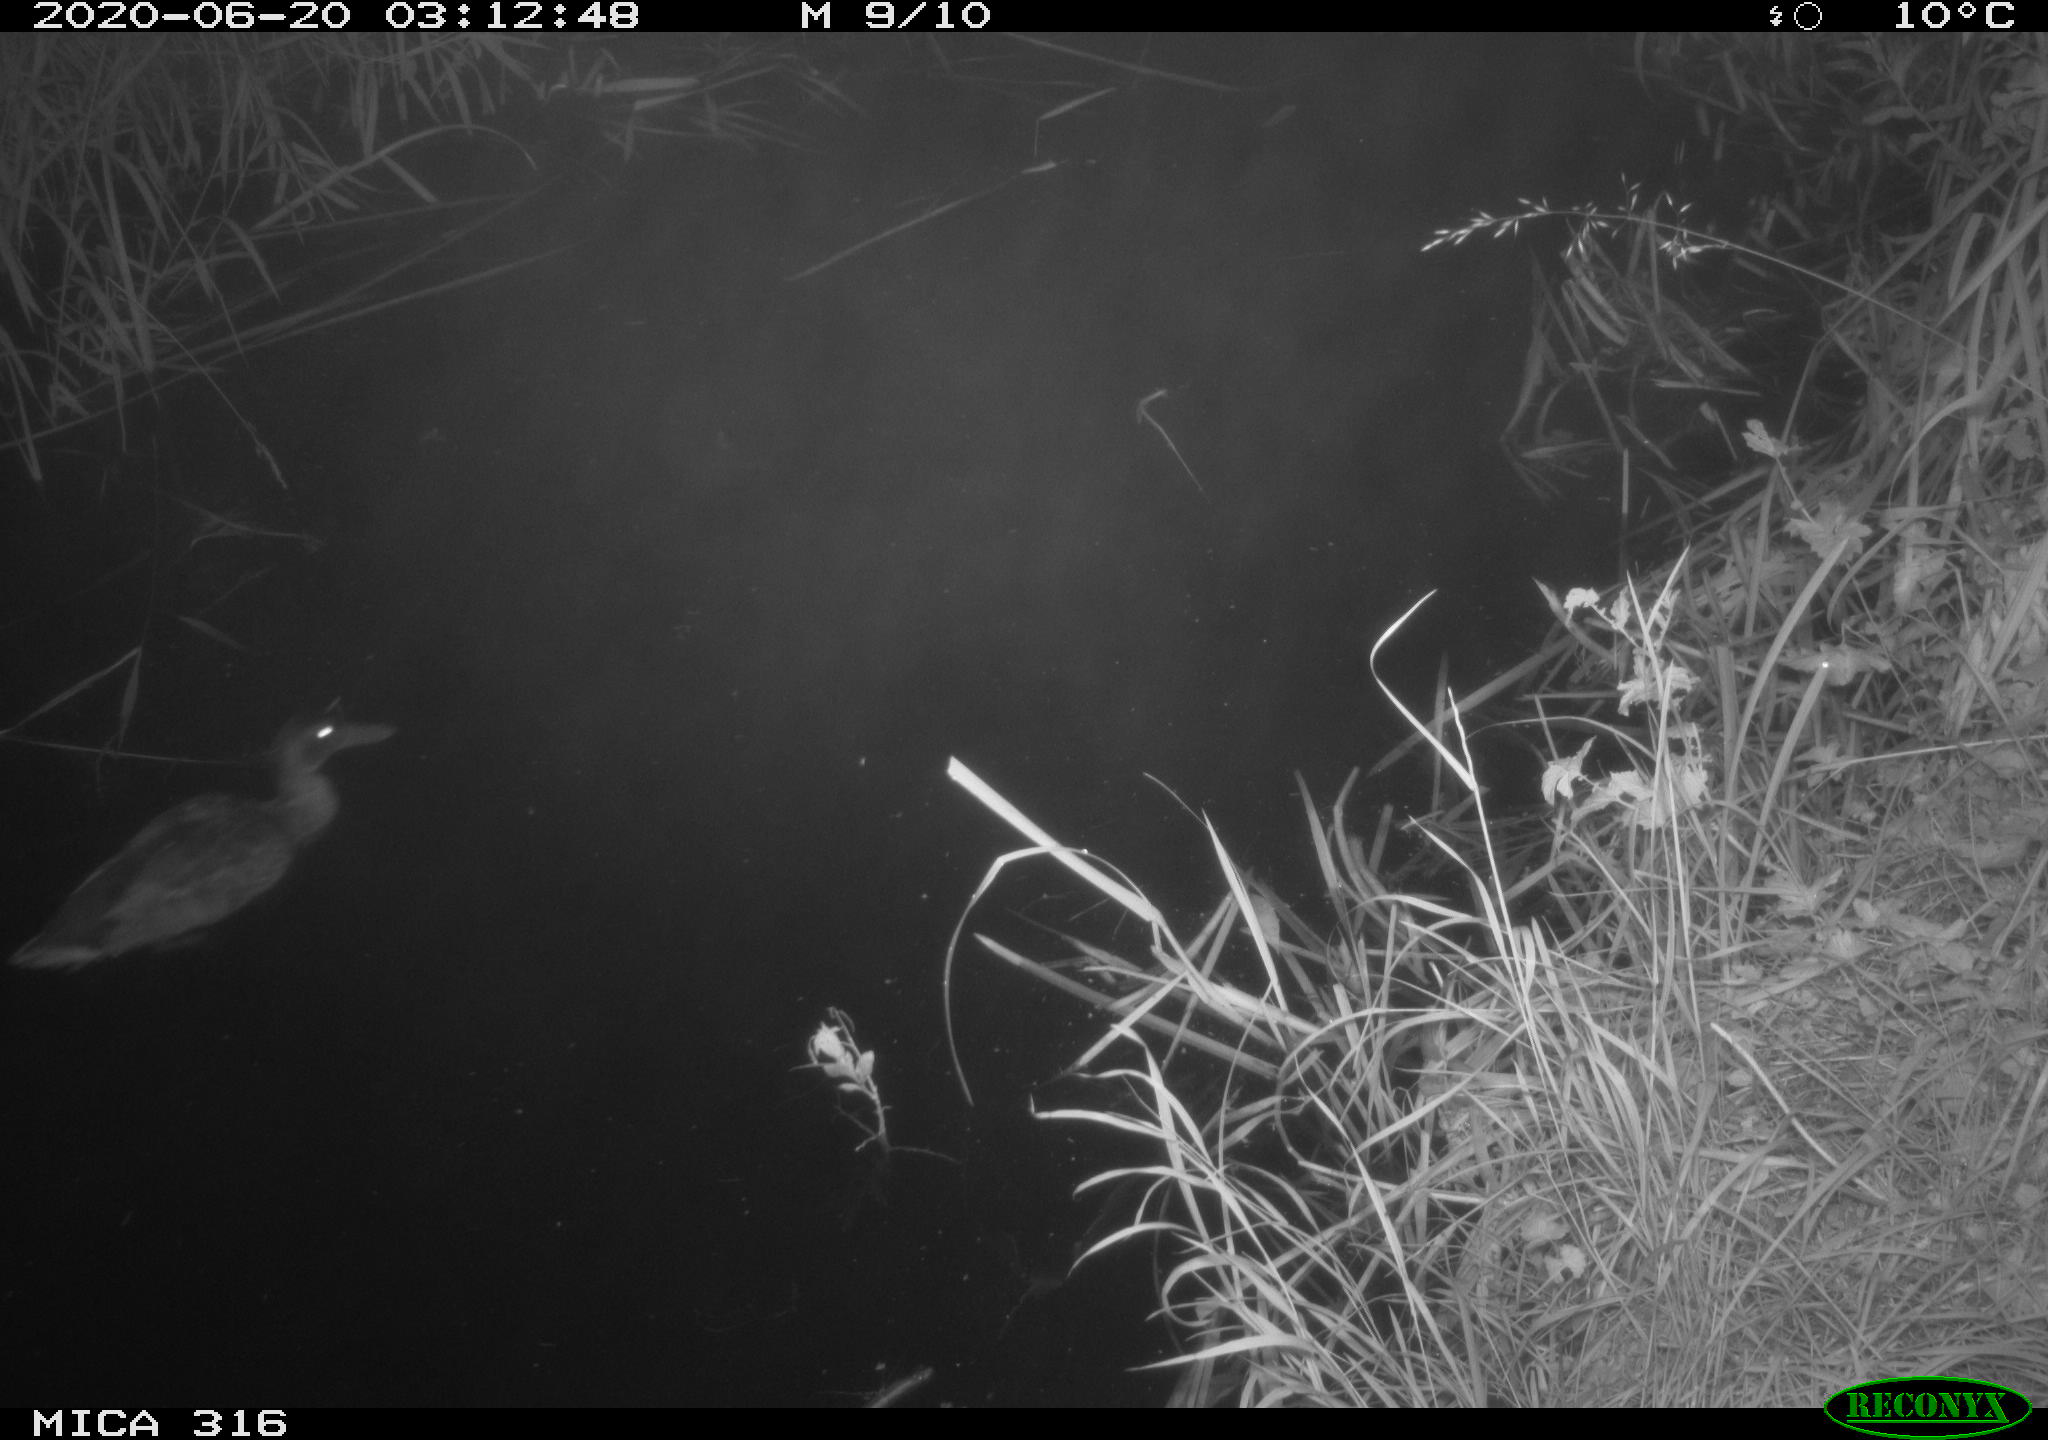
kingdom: Animalia
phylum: Chordata
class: Aves
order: Anseriformes
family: Anatidae
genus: Anas
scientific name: Anas platyrhynchos
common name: Mallard
